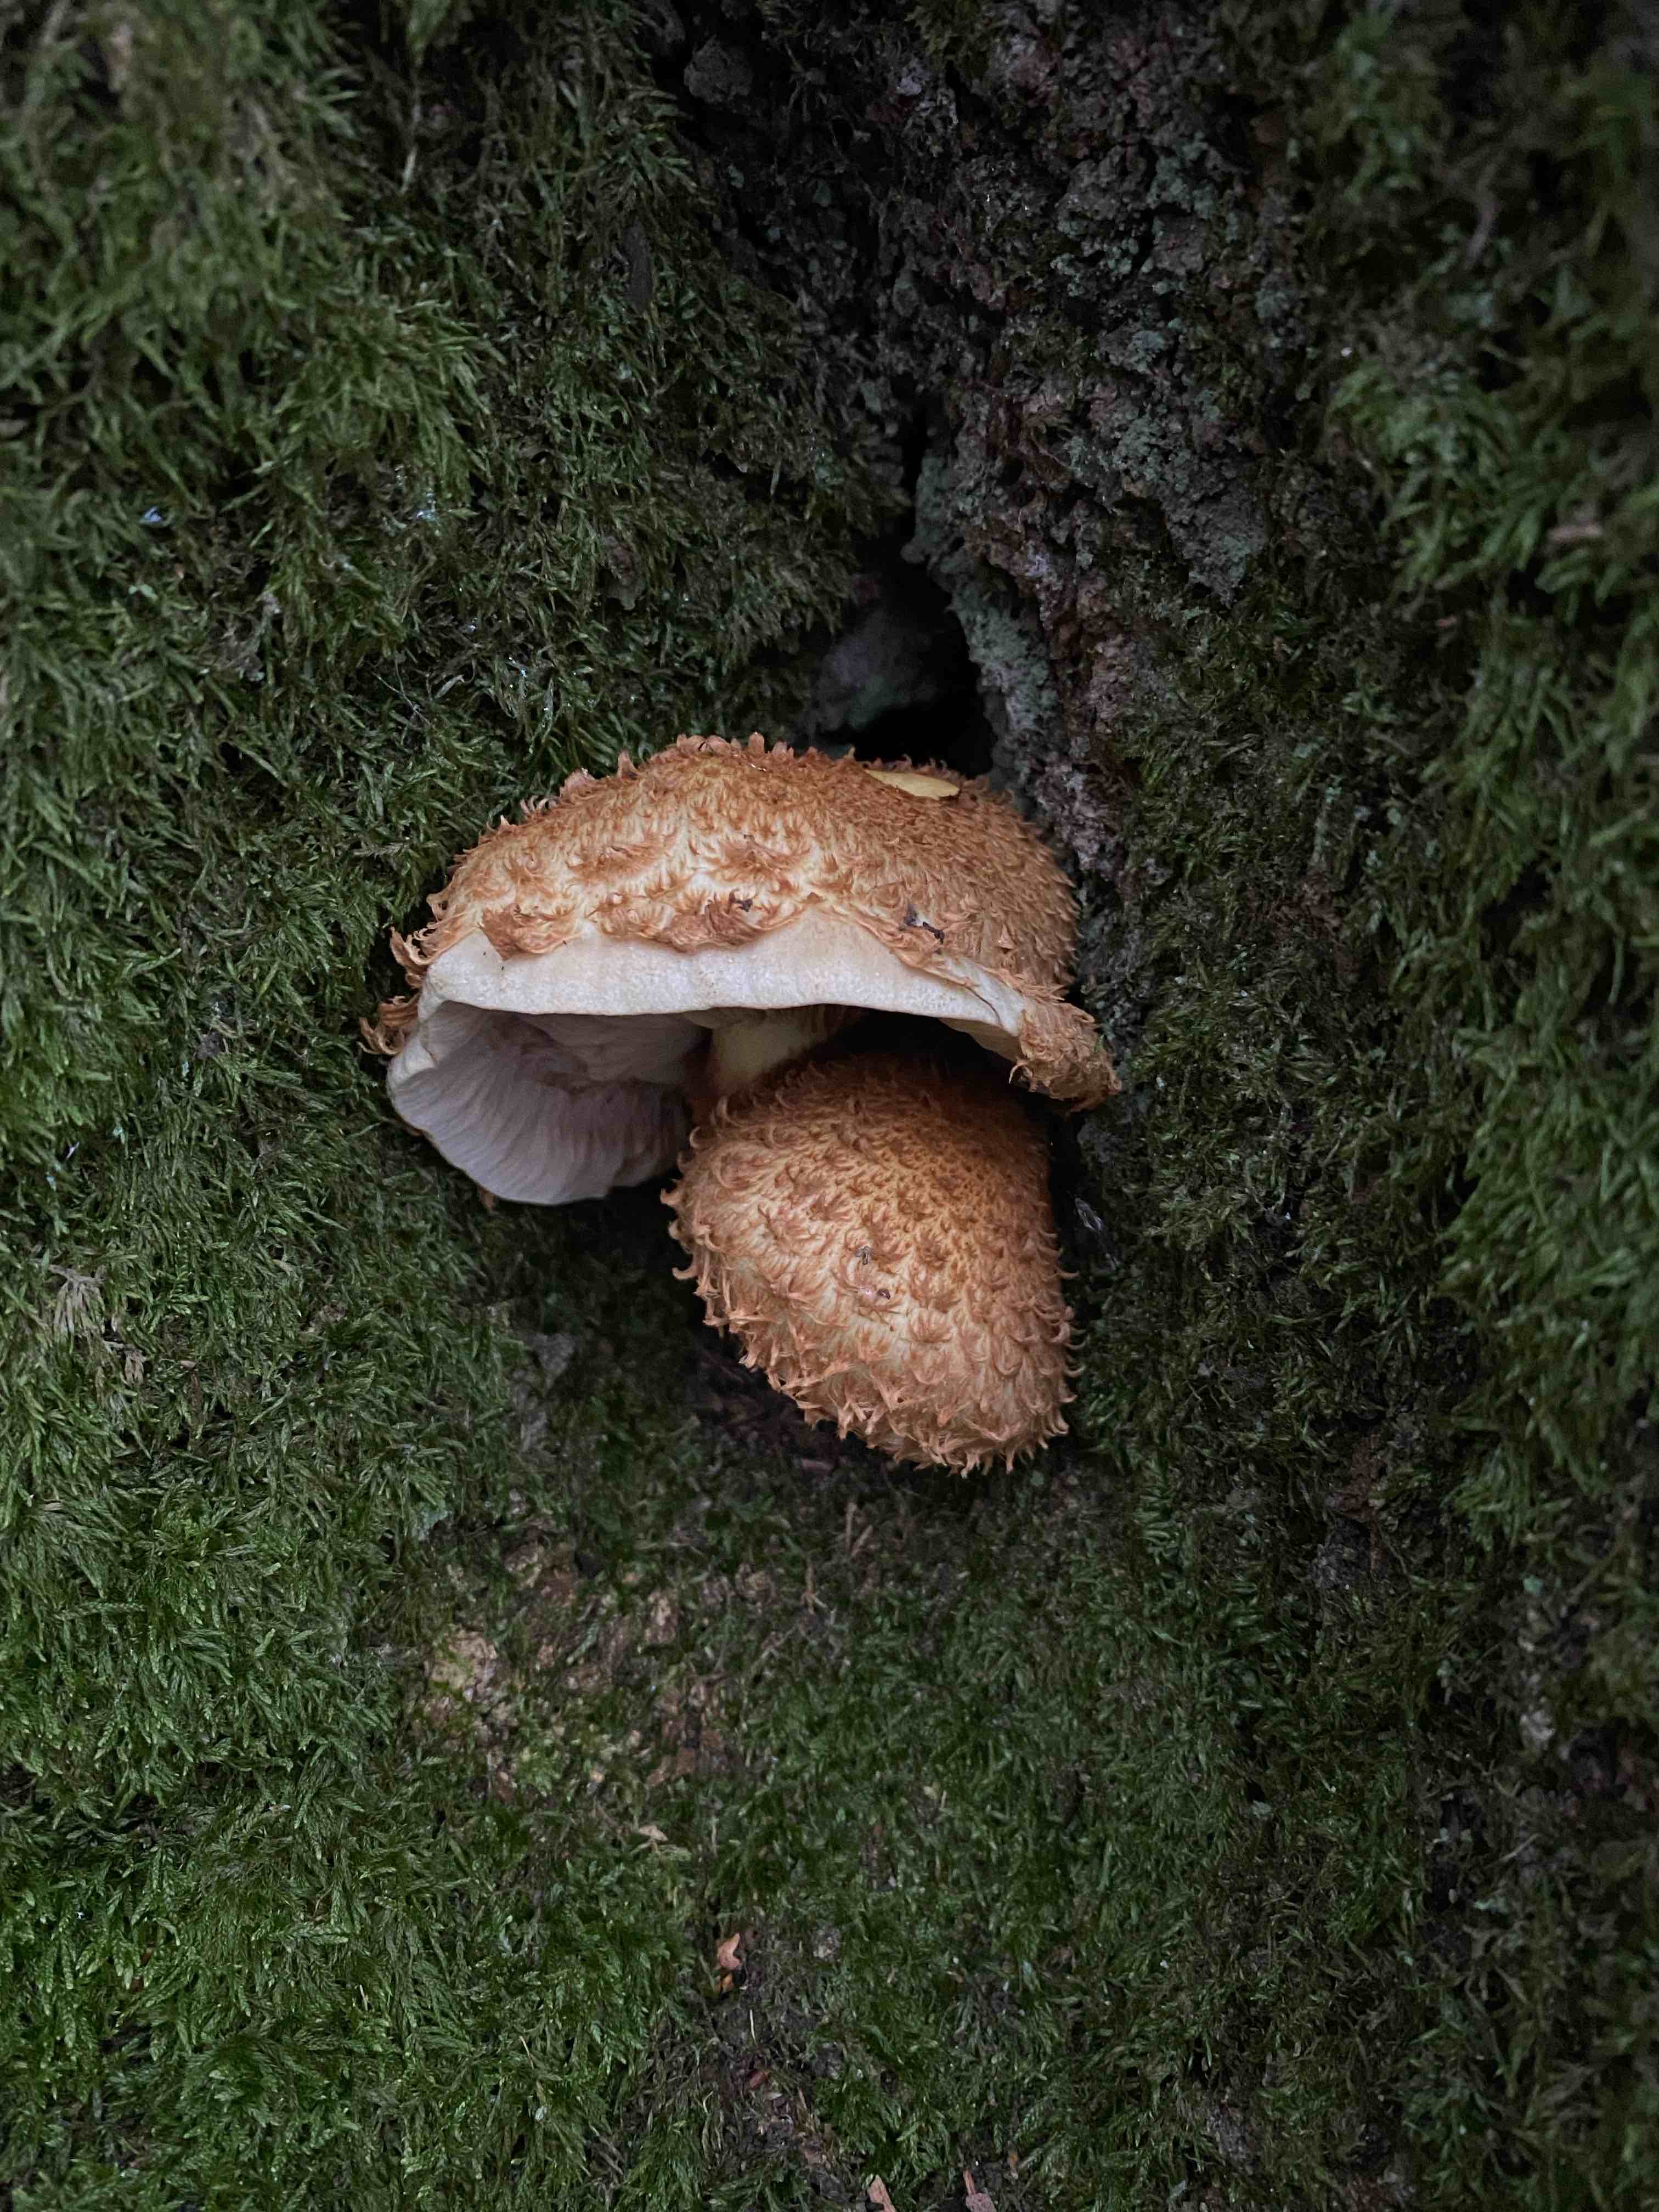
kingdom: Fungi
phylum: Basidiomycota
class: Agaricomycetes
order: Agaricales
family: Strophariaceae
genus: Pholiota
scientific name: Pholiota squarrosa
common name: krumskællet skælhat
